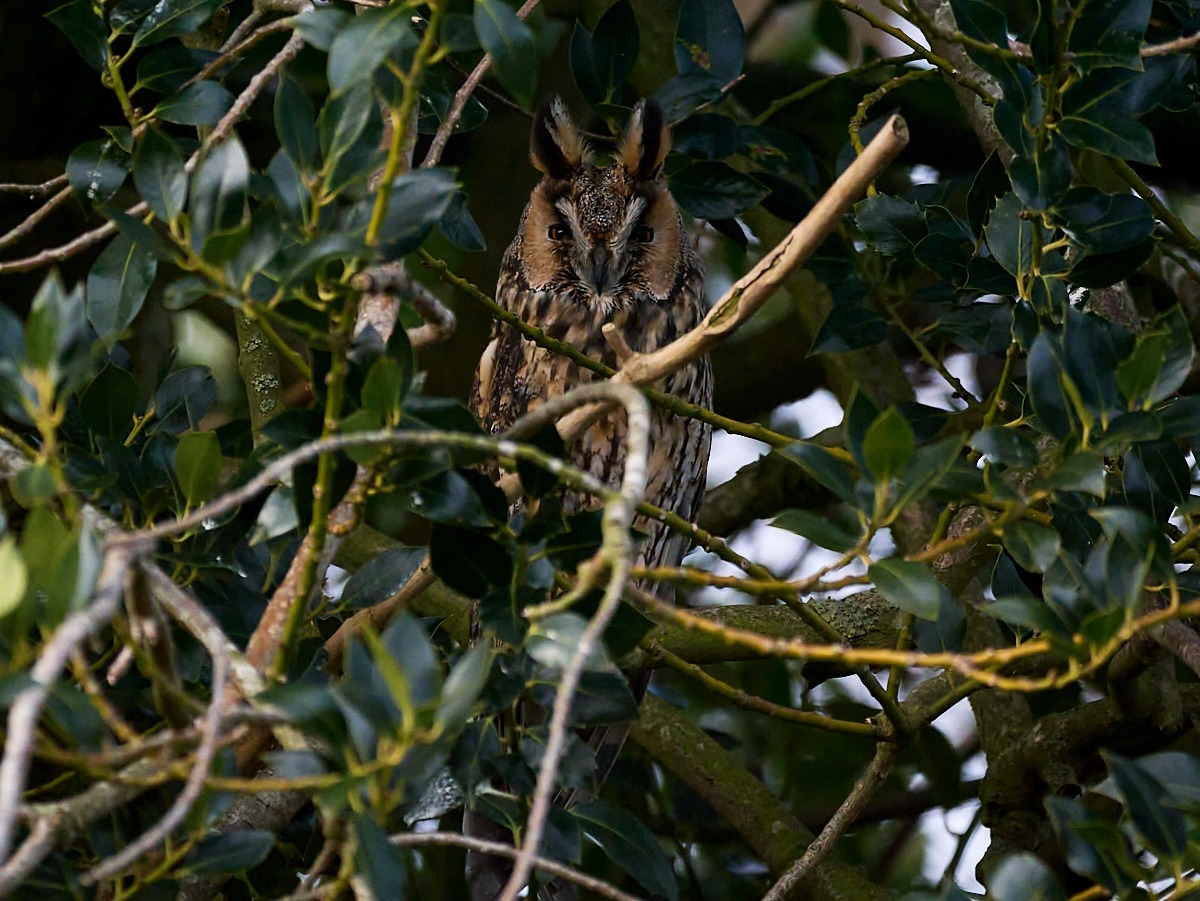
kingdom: Animalia
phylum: Chordata
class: Aves
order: Strigiformes
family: Strigidae
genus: Asio
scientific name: Asio otus
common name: Skovhornugle
